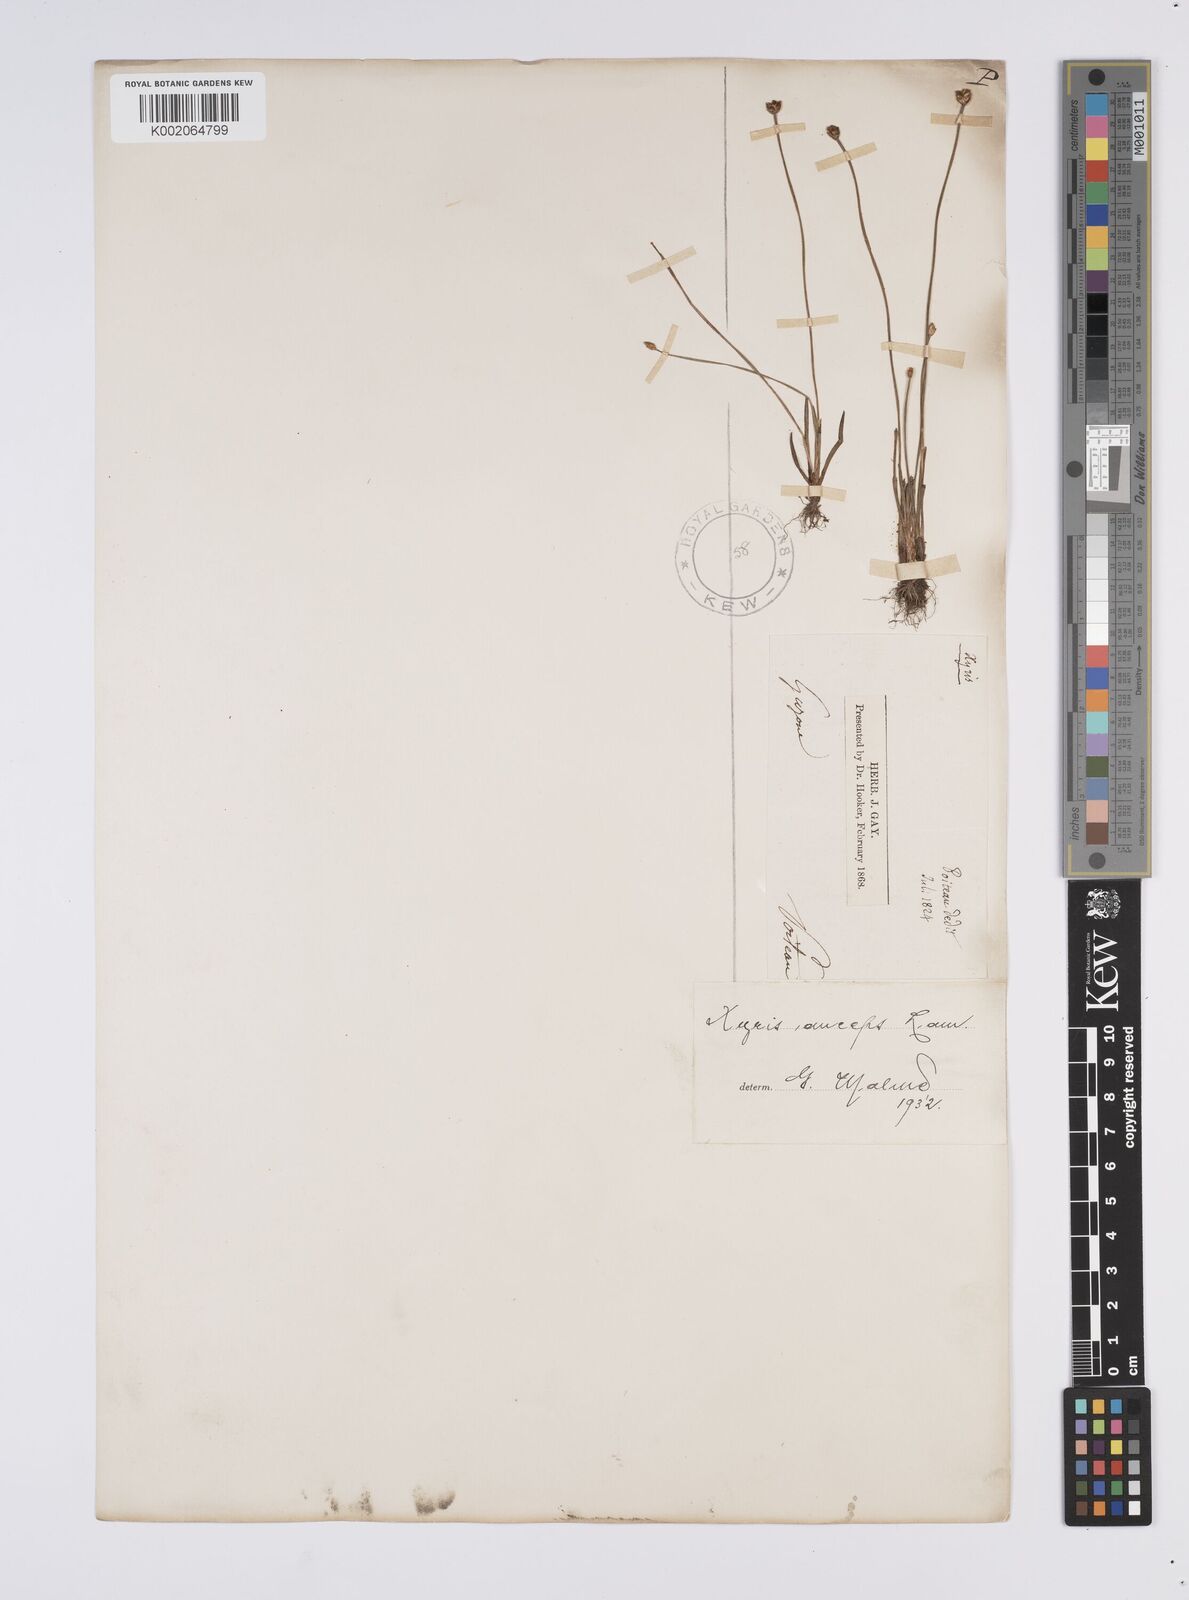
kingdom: Plantae
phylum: Tracheophyta
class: Liliopsida
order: Poales
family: Xyridaceae
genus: Xyris
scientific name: Xyris anceps
